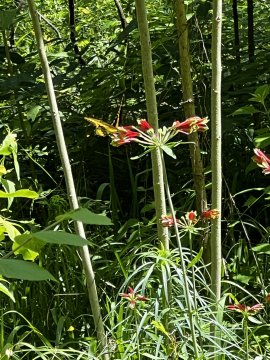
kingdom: Animalia
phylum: Arthropoda
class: Insecta
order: Lepidoptera
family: Papilionidae
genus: Papilio
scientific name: Papilio cresphontes
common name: Eastern Giant Swallowtail
